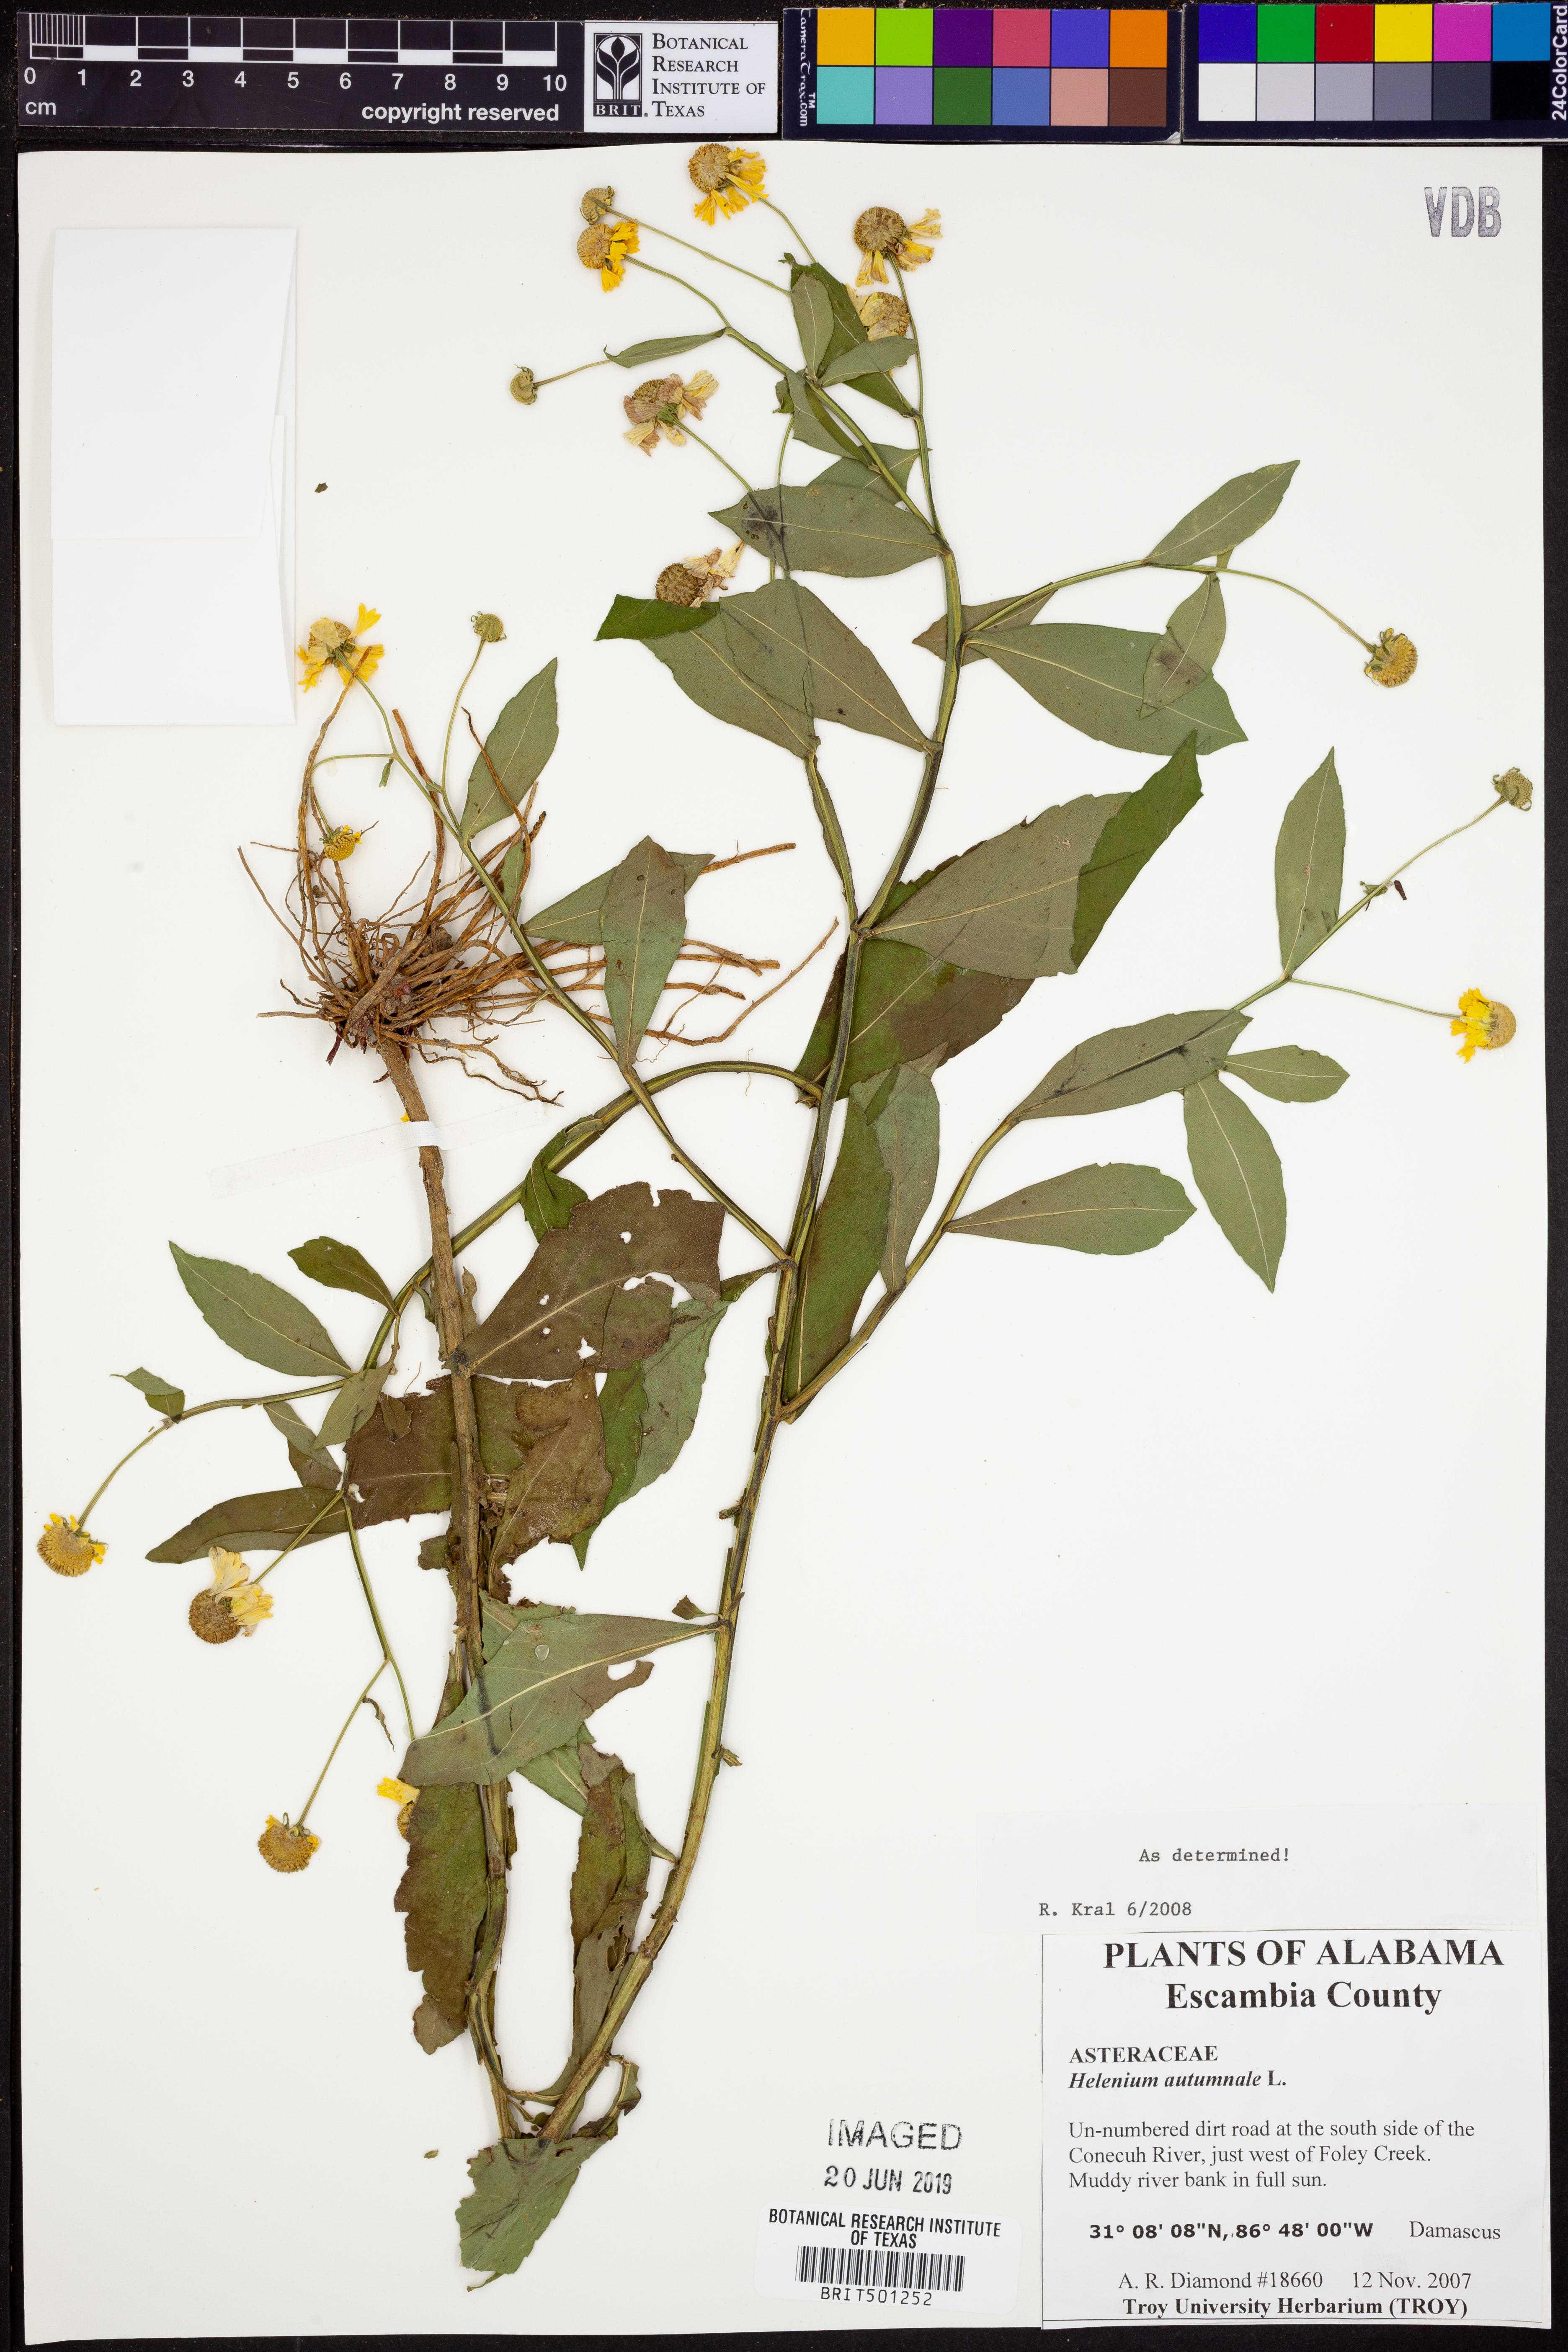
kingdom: Plantae
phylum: Tracheophyta
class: Magnoliopsida
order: Asterales
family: Asteraceae
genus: Helenium
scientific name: Helenium autumnale
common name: Sneezeweed
